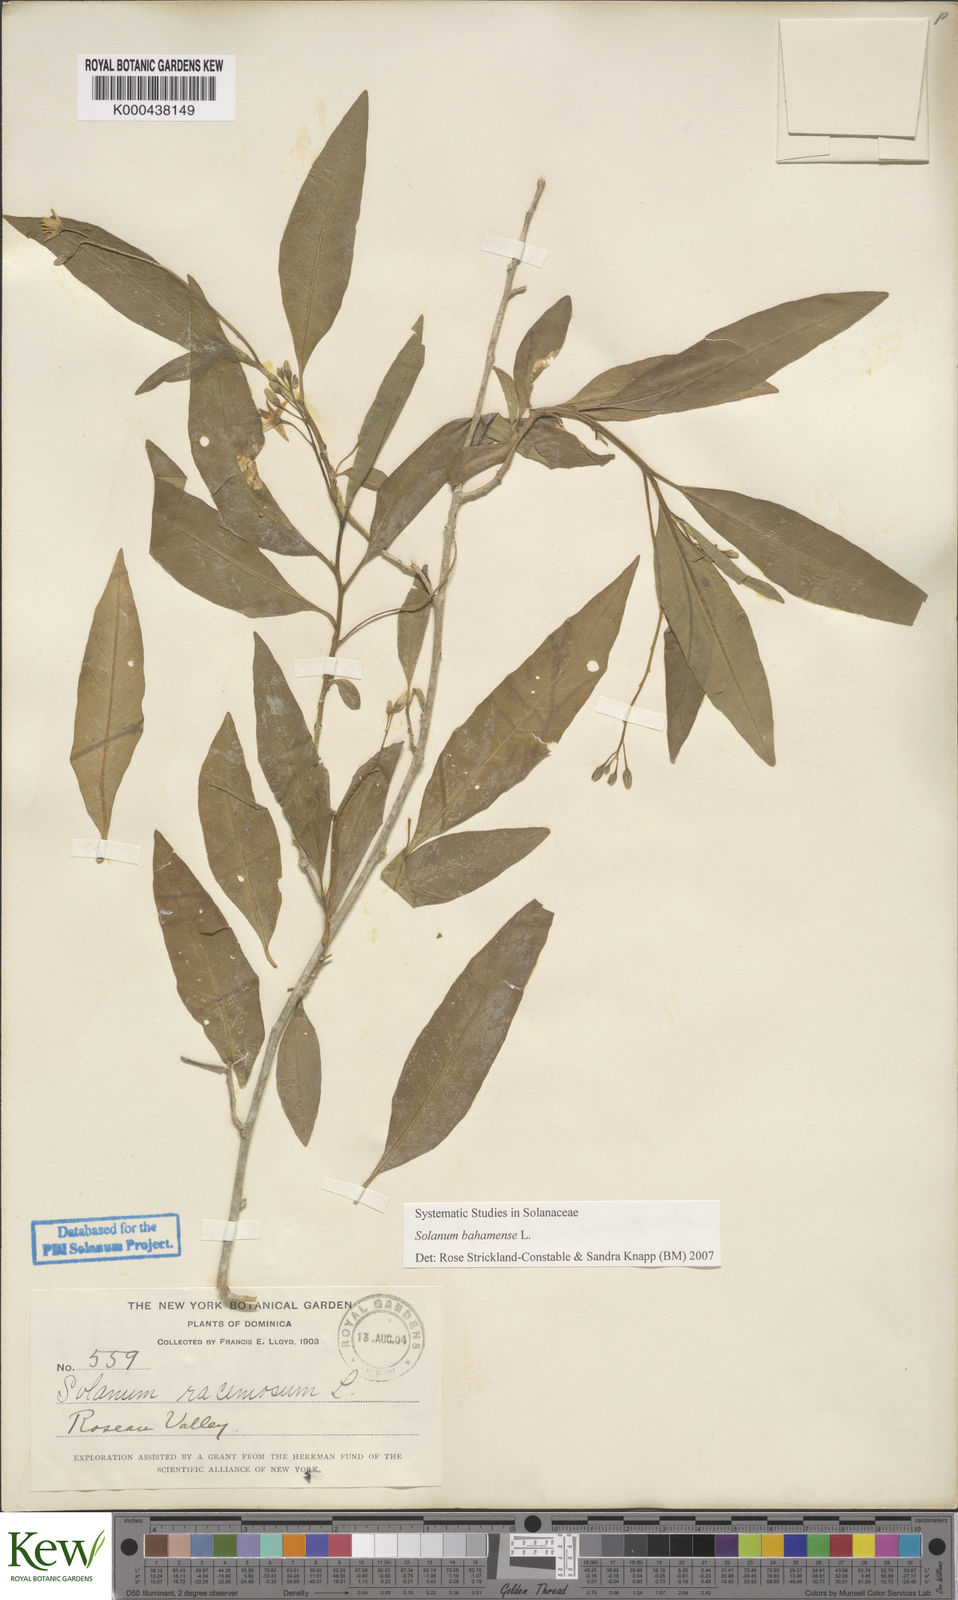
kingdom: Plantae
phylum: Tracheophyta
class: Magnoliopsida
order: Solanales
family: Solanaceae
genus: Solanum
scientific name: Solanum bahamense
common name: Canker-berry
